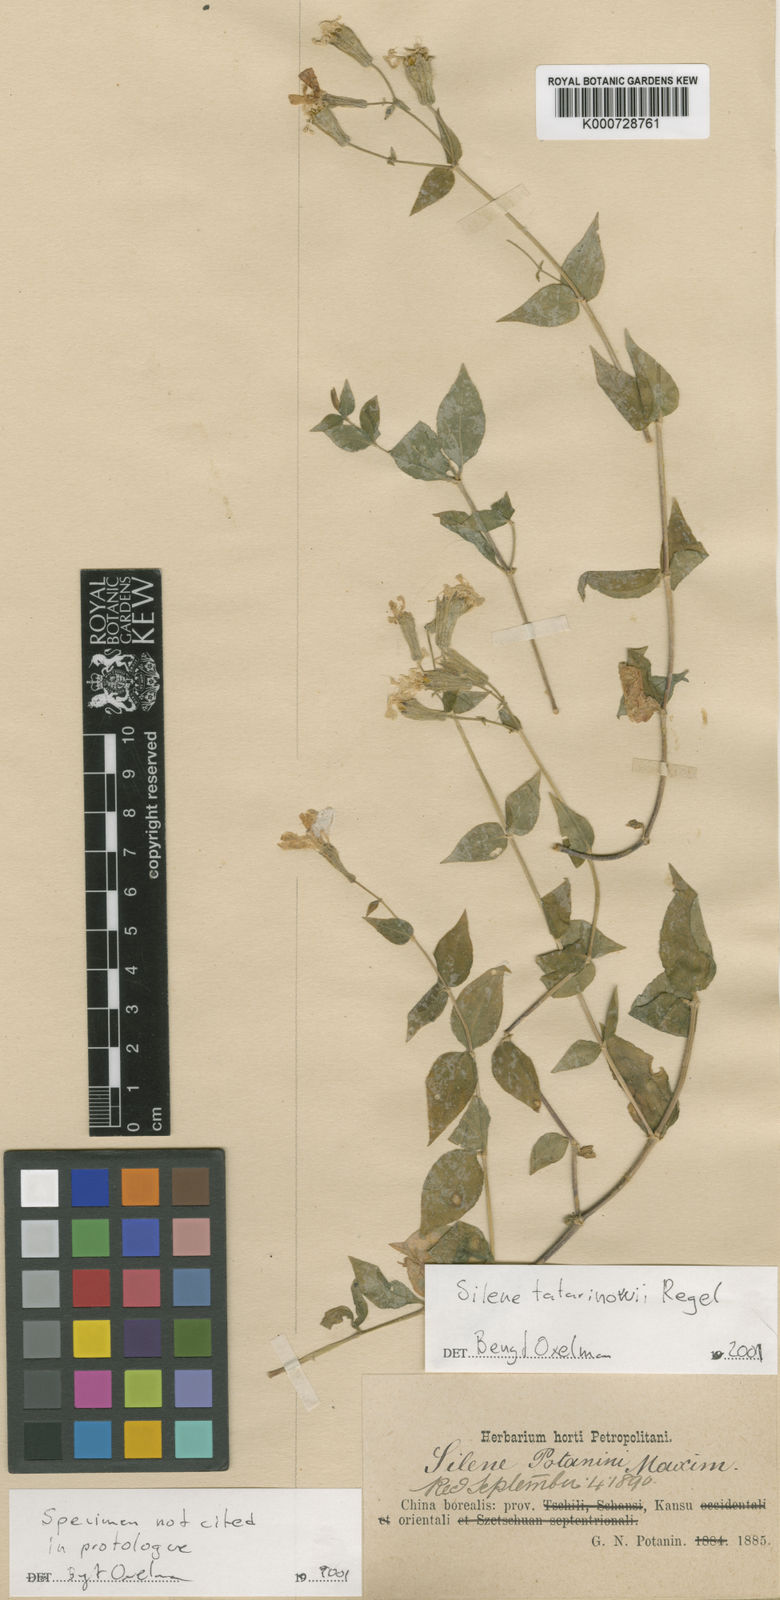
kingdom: Plantae
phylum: Tracheophyta
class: Magnoliopsida
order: Caryophyllales
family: Caryophyllaceae
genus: Silene
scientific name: Silene tatarinowii
